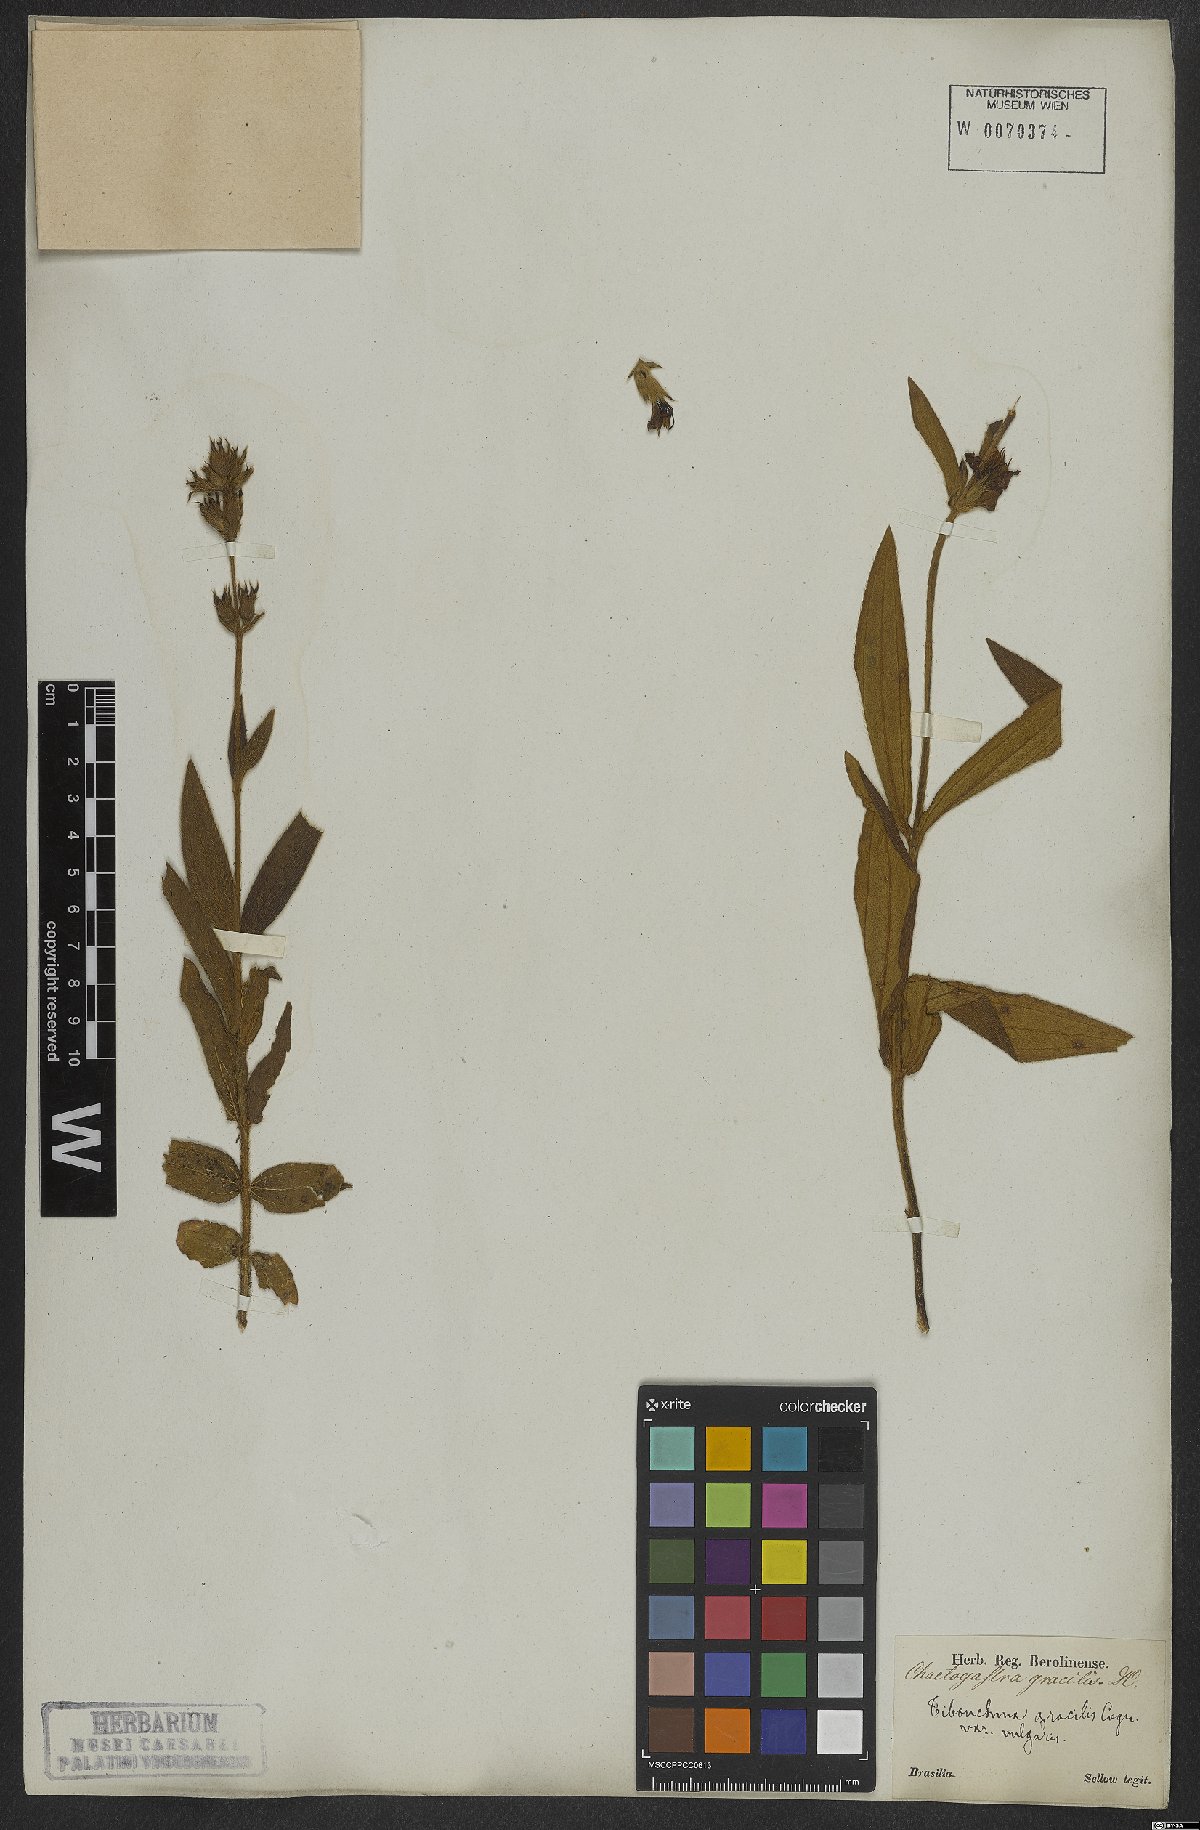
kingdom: Plantae
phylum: Tracheophyta
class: Magnoliopsida
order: Myrtales
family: Melastomataceae
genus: Chaetogastra
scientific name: Chaetogastra gracilis
